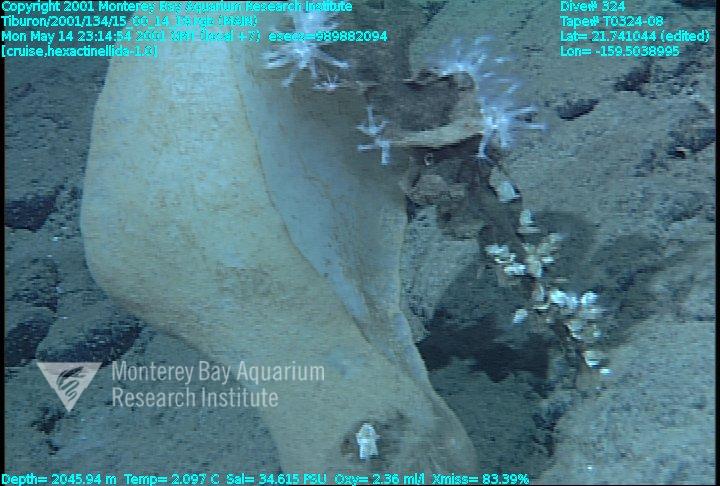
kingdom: Animalia
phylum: Porifera
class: Hexactinellida
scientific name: Hexactinellida
